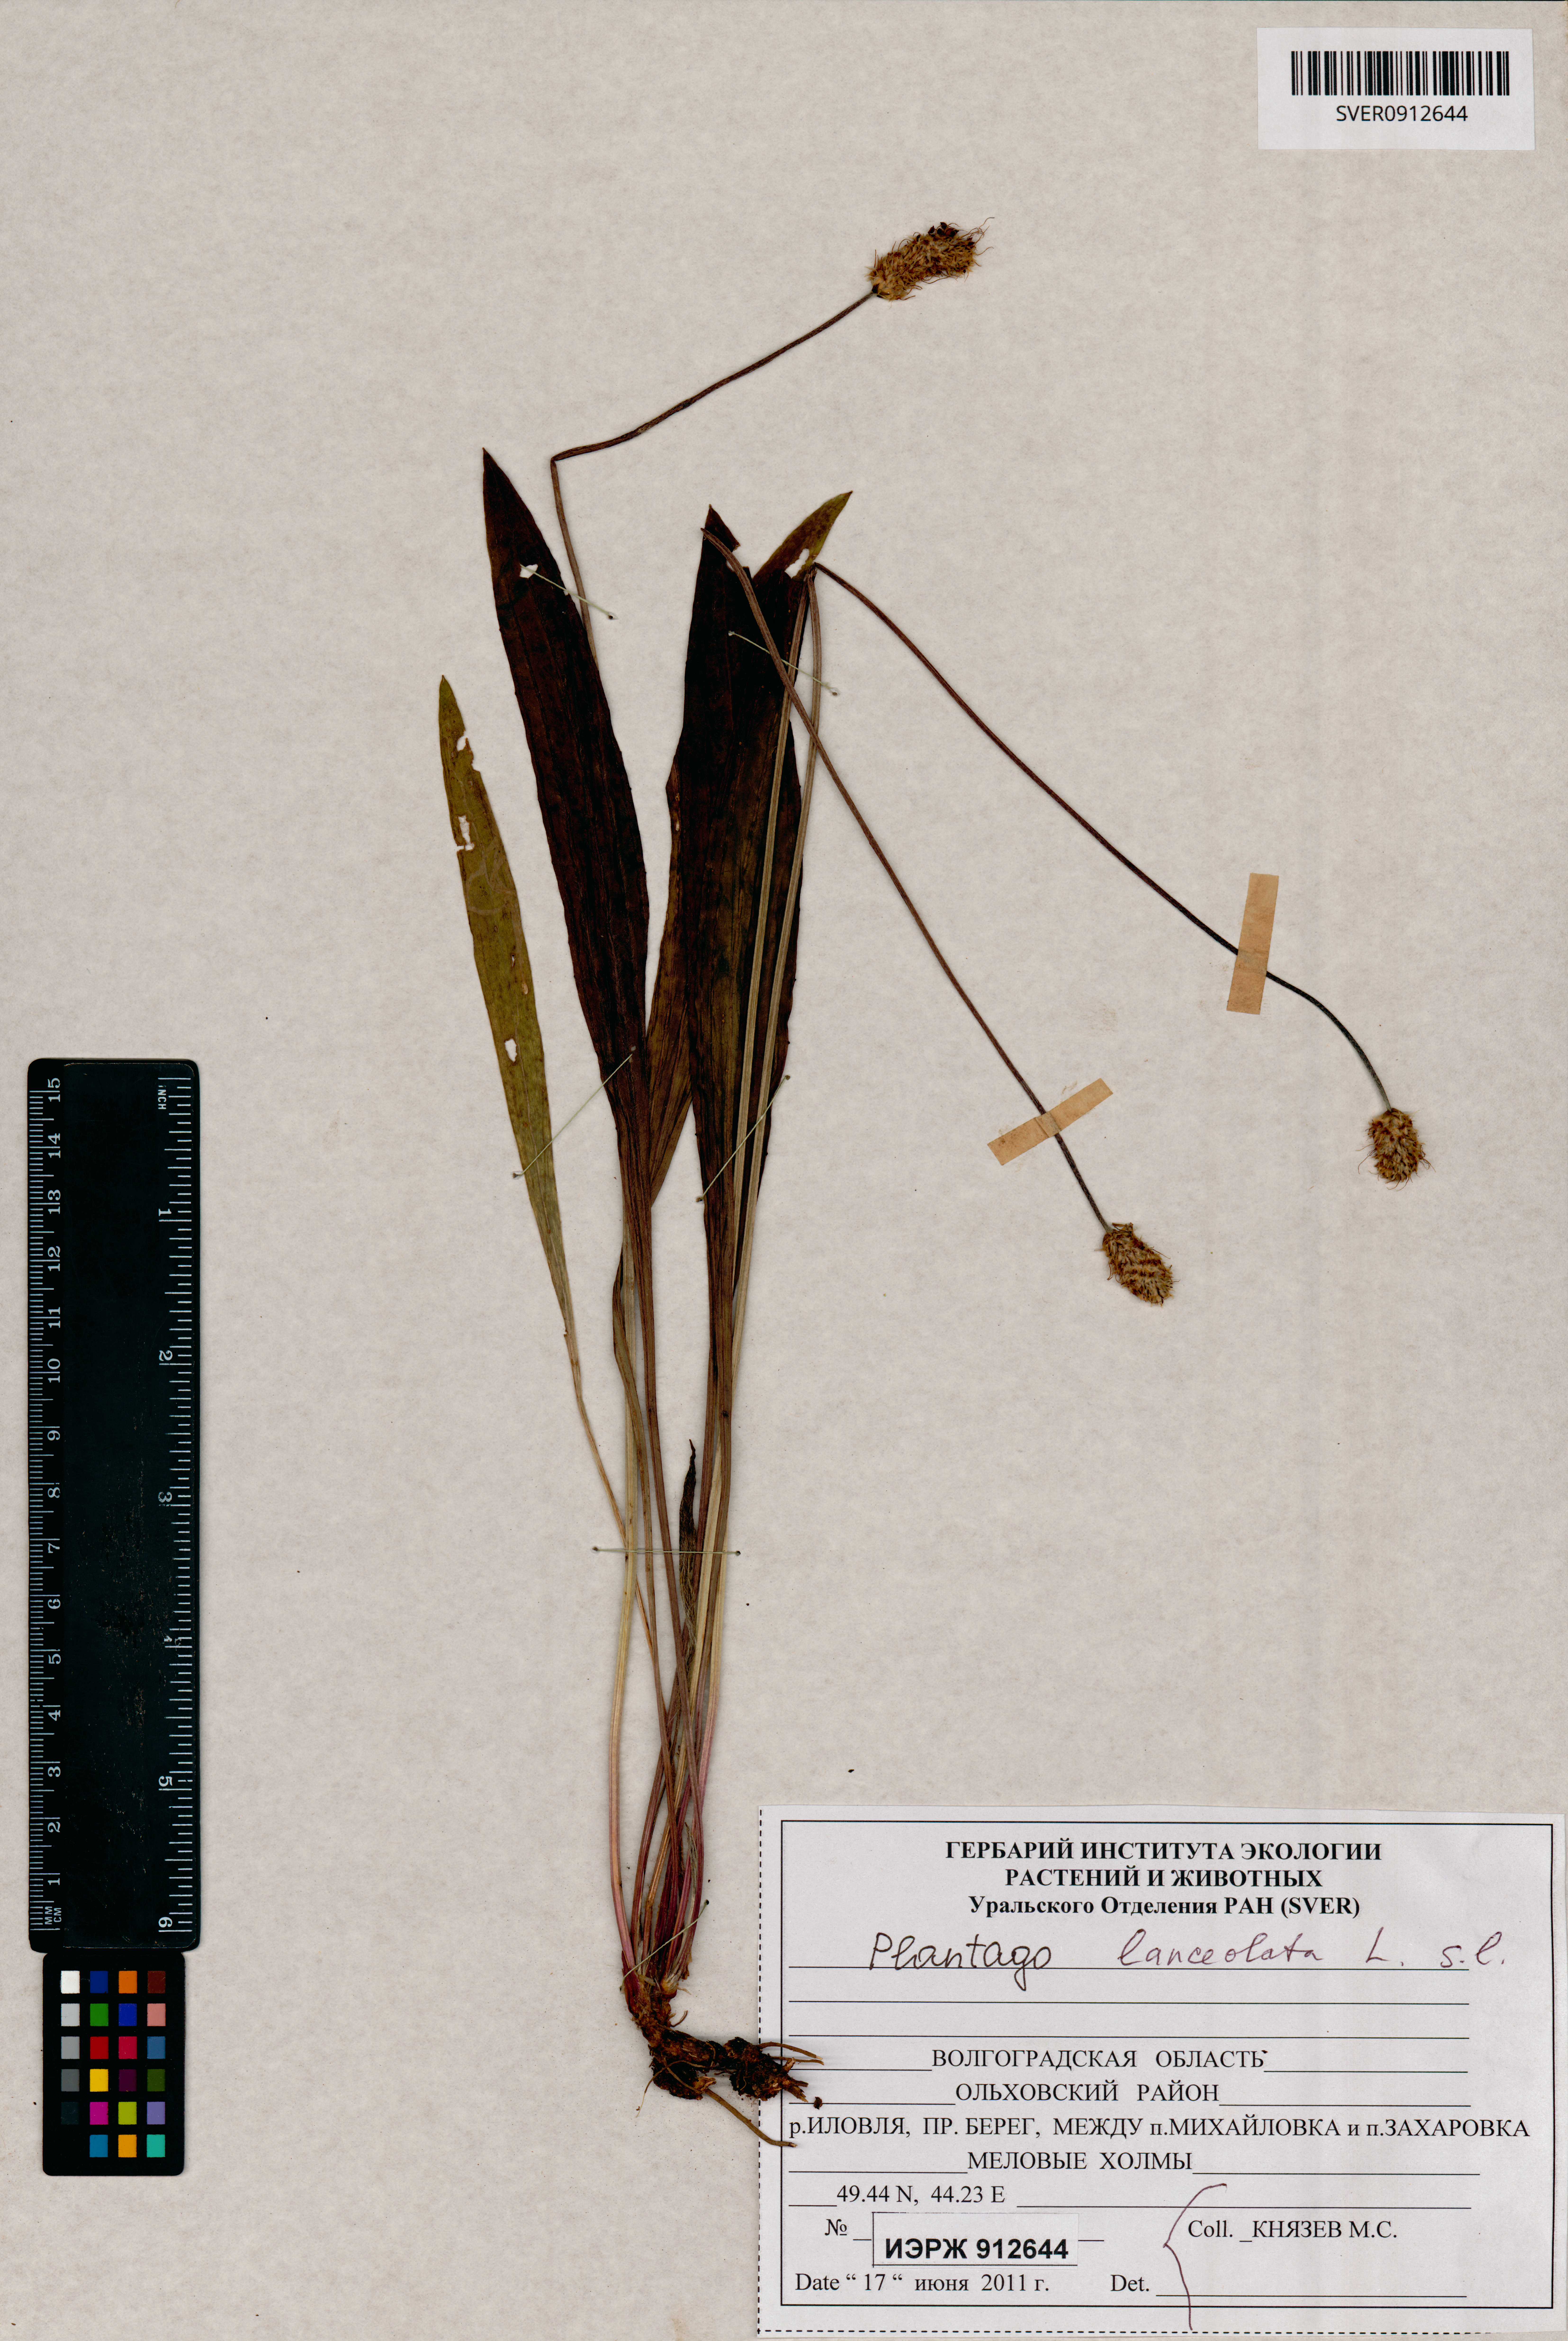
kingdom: Plantae
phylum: Tracheophyta
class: Magnoliopsida
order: Caryophyllales
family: Plumbaginaceae
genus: Goniolimon
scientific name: Goniolimon rubellum
